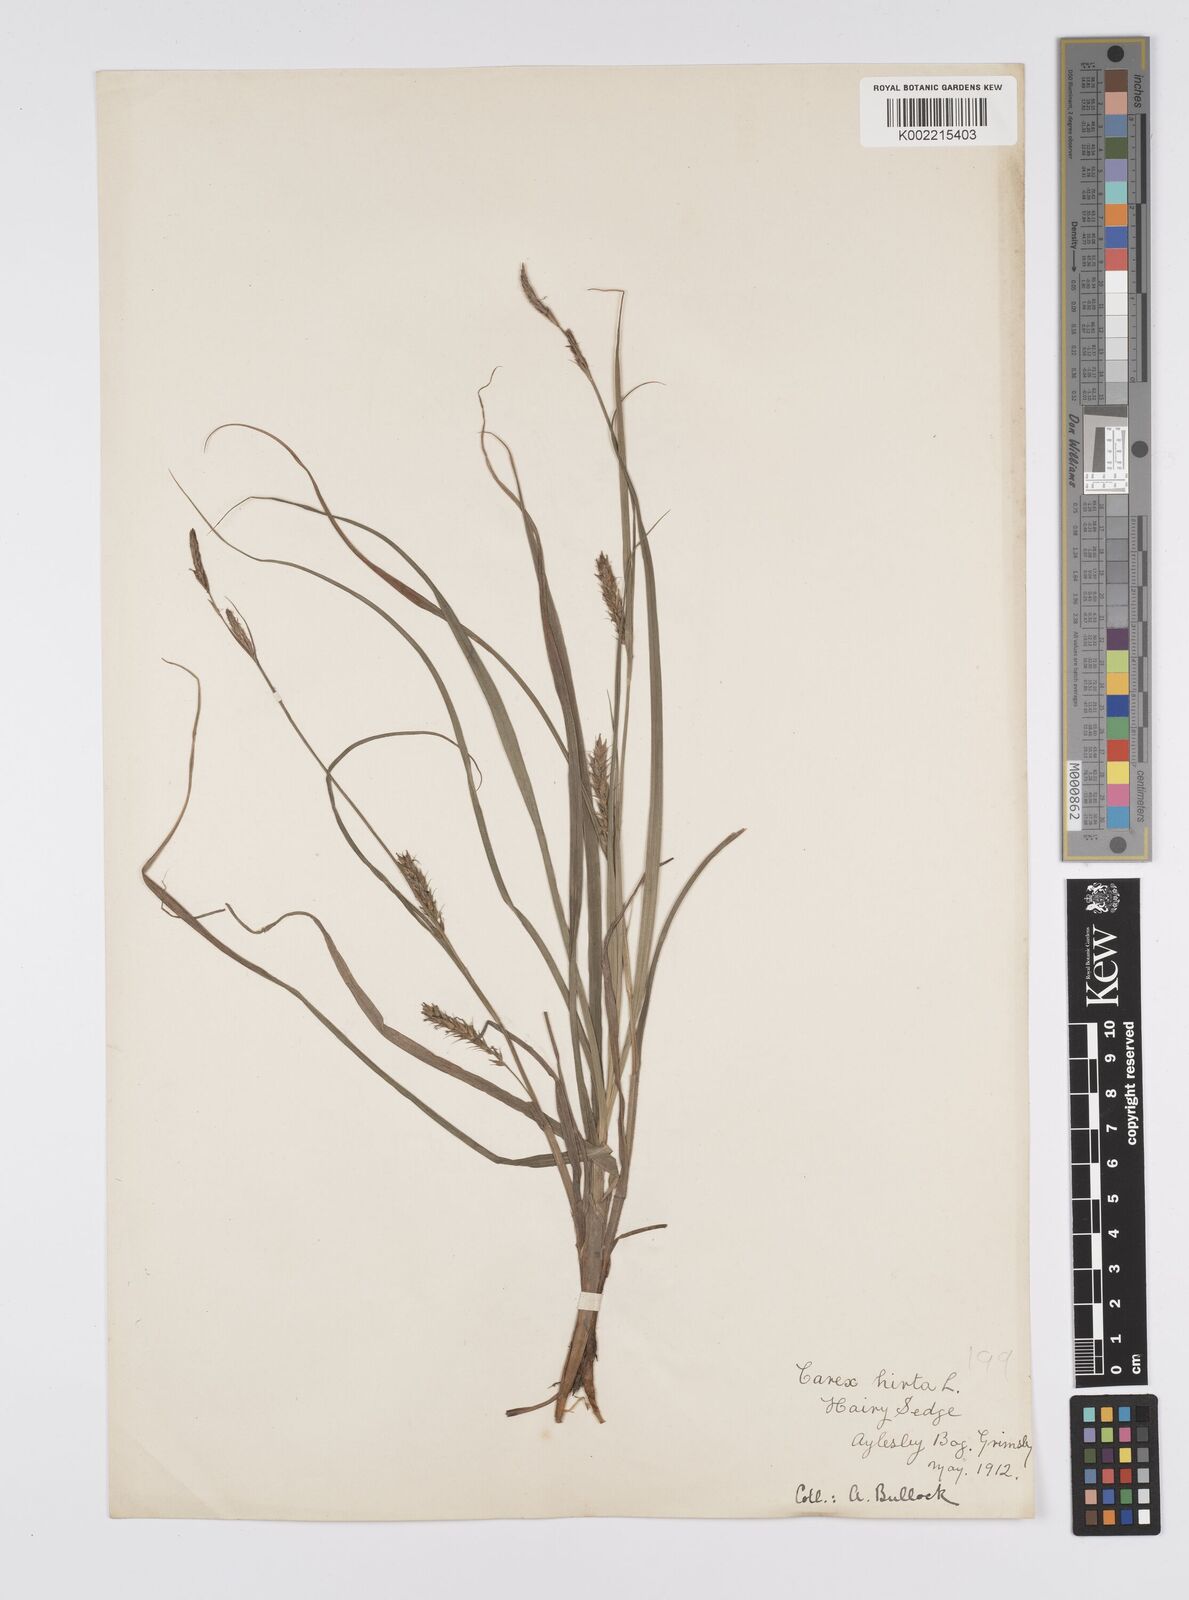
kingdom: Plantae
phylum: Tracheophyta
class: Liliopsida
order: Poales
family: Cyperaceae
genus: Carex
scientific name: Carex hirta
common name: Hairy sedge
